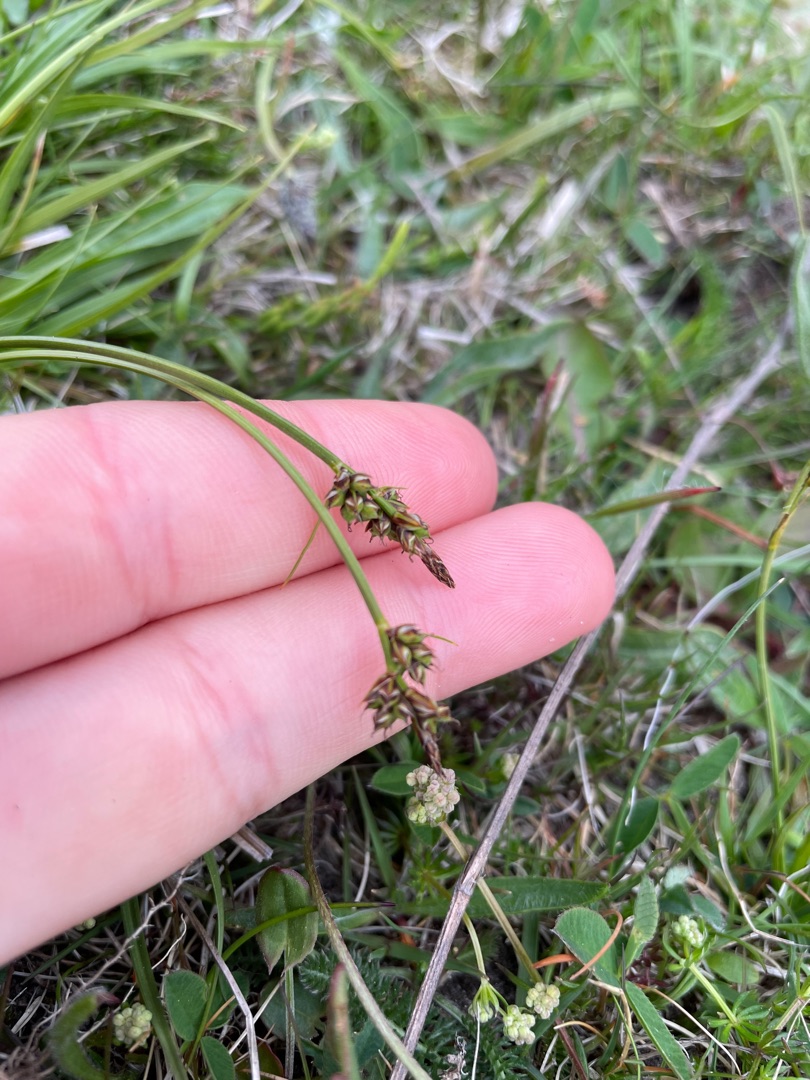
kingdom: Plantae
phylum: Tracheophyta
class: Liliopsida
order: Poales
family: Cyperaceae
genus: Carex
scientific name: Carex pilulifera
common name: Pille-star
